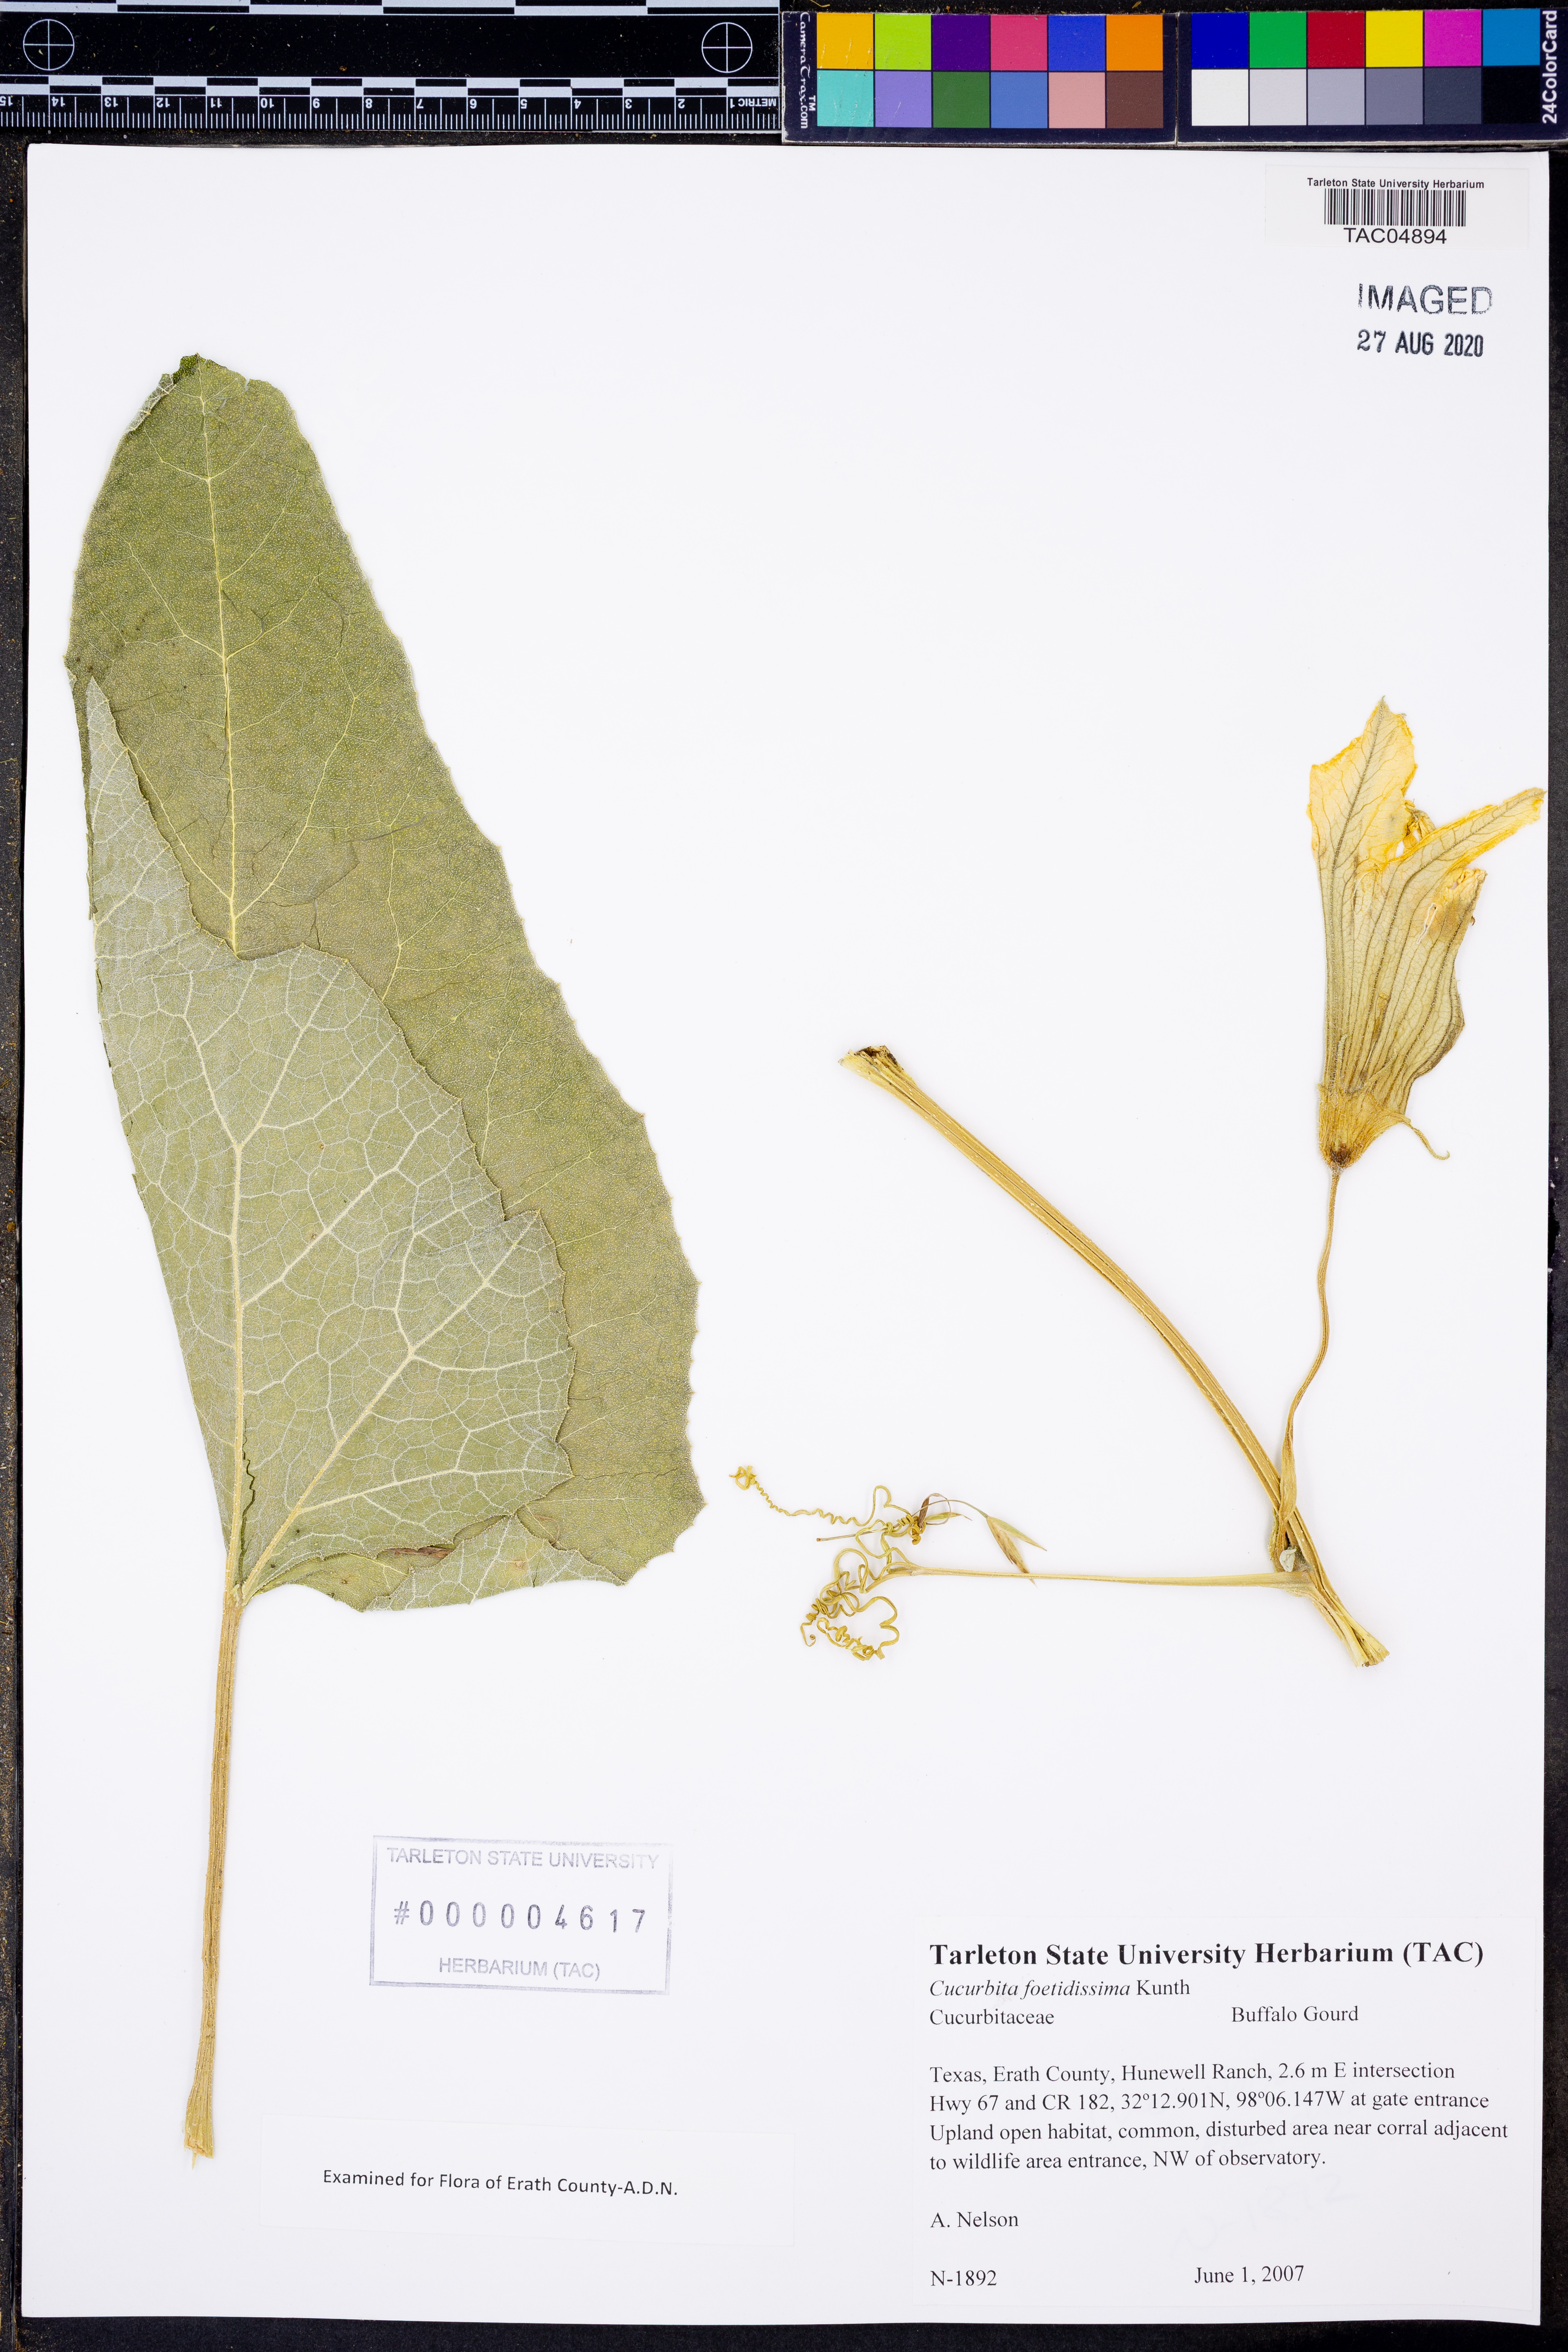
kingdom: Plantae
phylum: Tracheophyta
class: Magnoliopsida
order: Cucurbitales
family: Cucurbitaceae
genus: Cucurbita
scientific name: Cucurbita foetidissima
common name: Buffalo gourd
